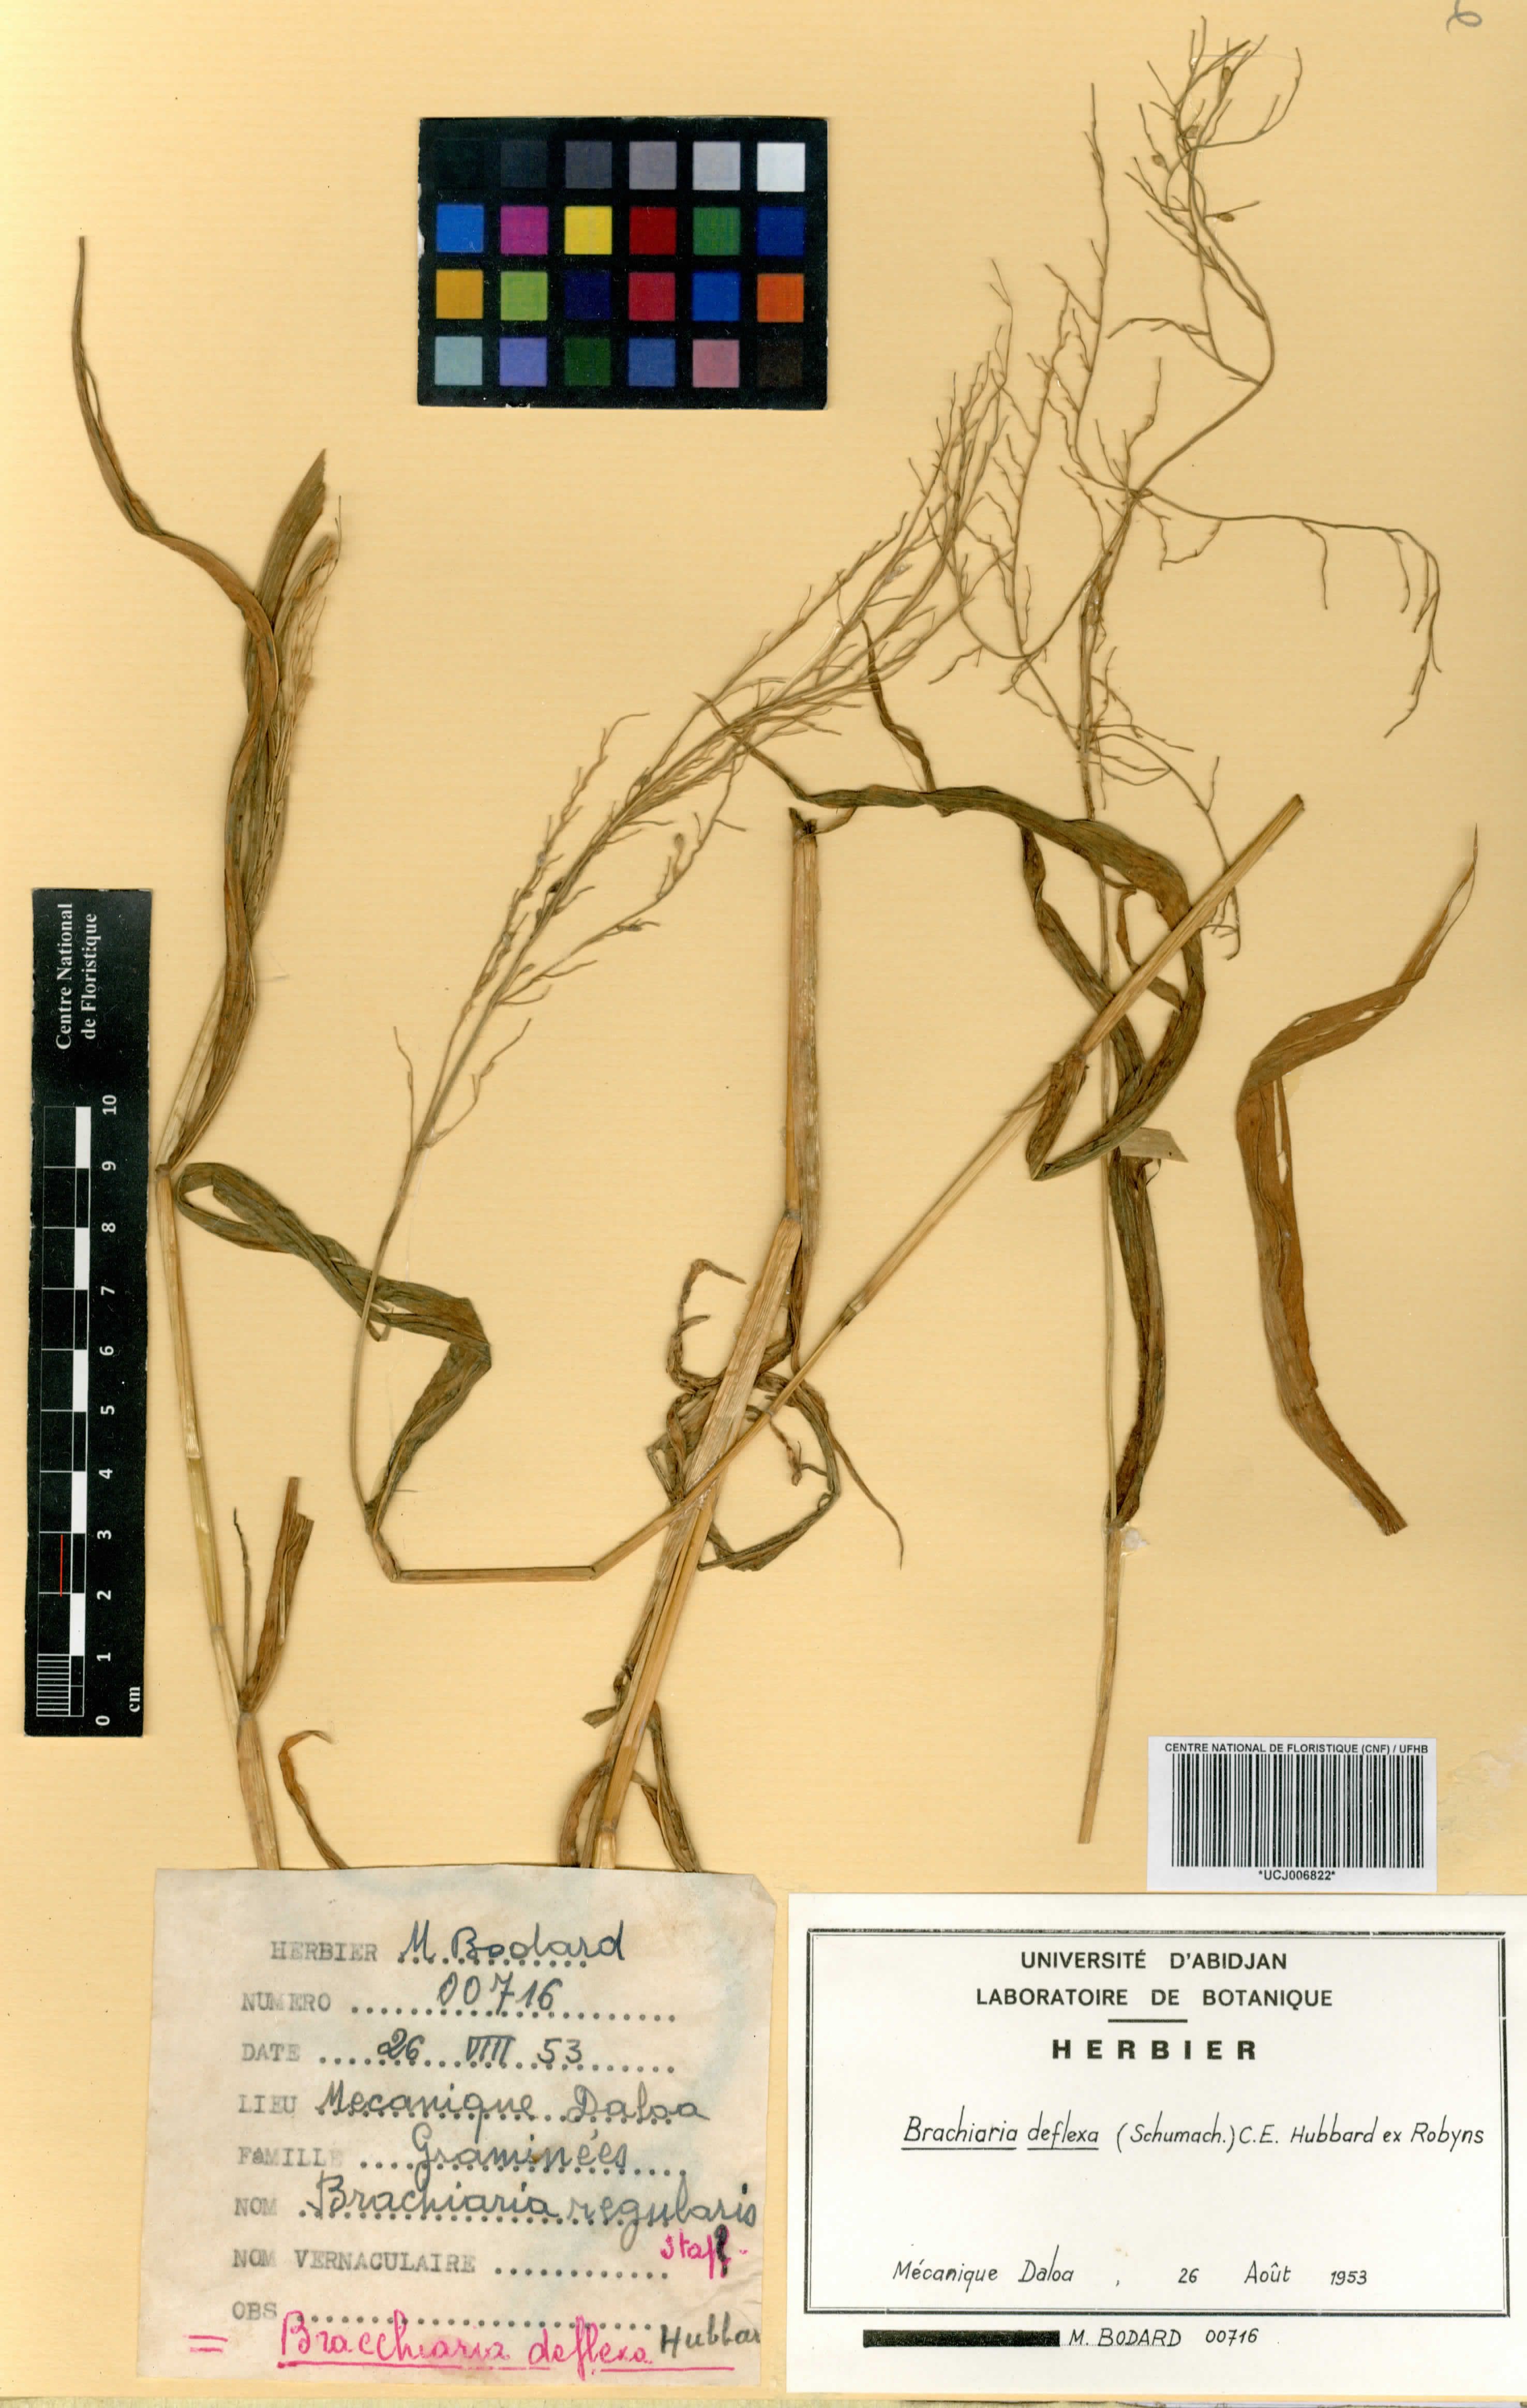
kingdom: Plantae
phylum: Tracheophyta
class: Liliopsida
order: Poales
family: Poaceae
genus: Urochloa
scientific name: Urochloa deflexa
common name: Guinea millet
